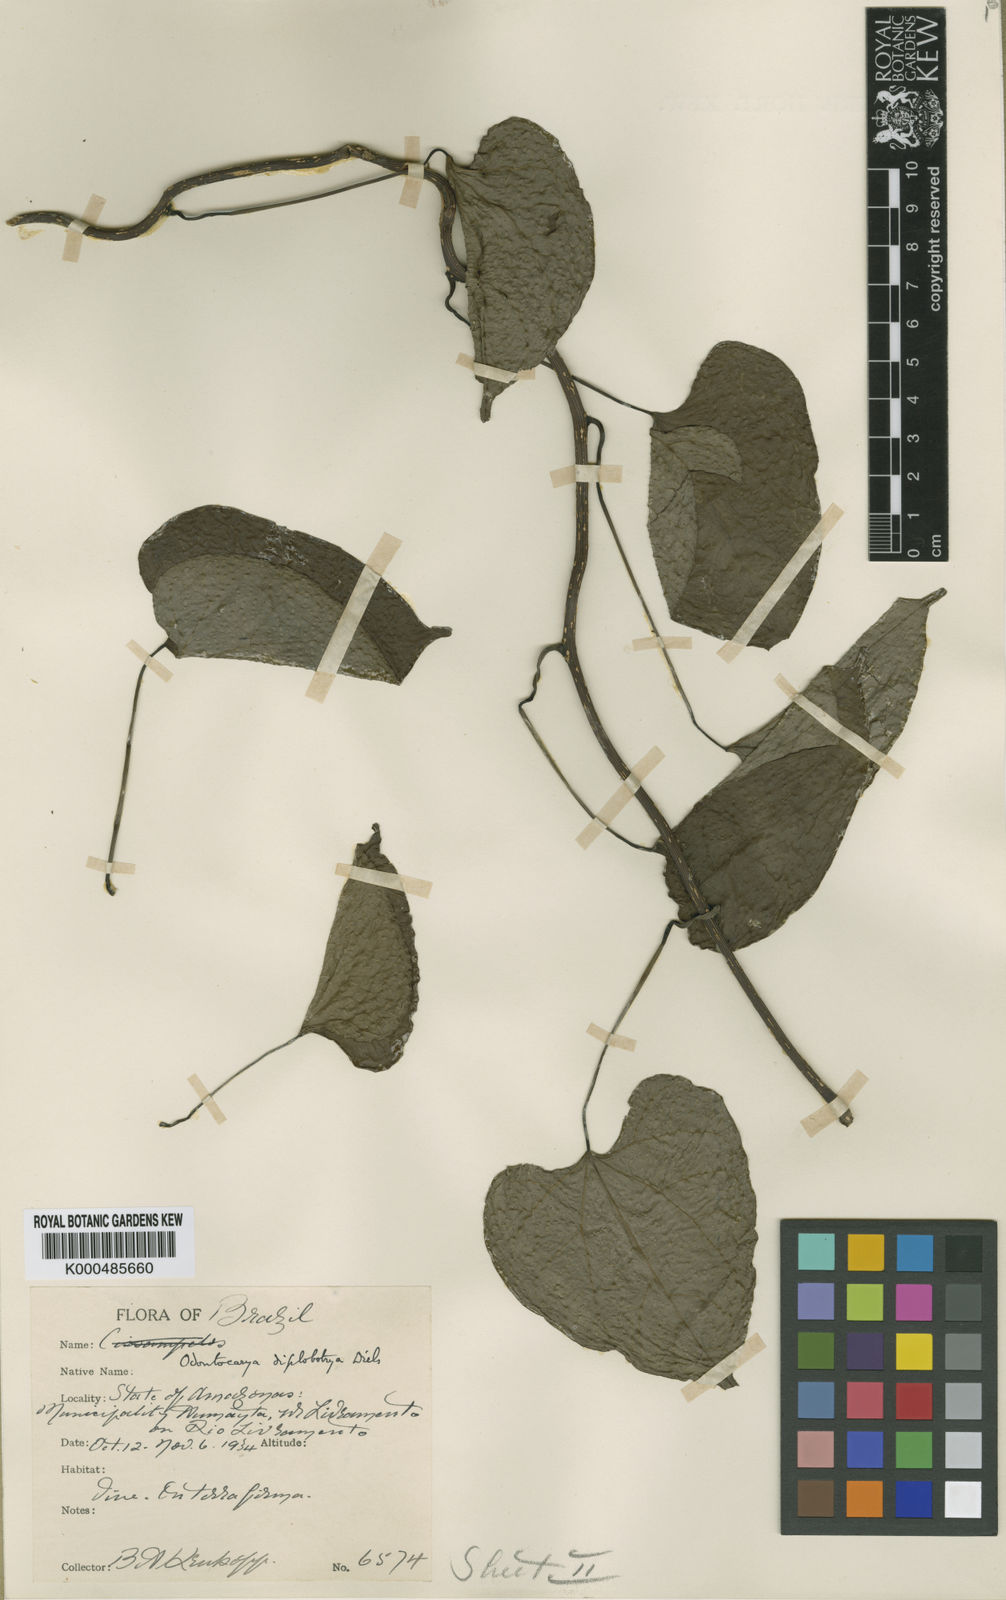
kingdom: Plantae
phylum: Tracheophyta
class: Magnoliopsida
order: Ranunculales
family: Menispermaceae
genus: Odontocarya
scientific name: Odontocarya krukoviana
